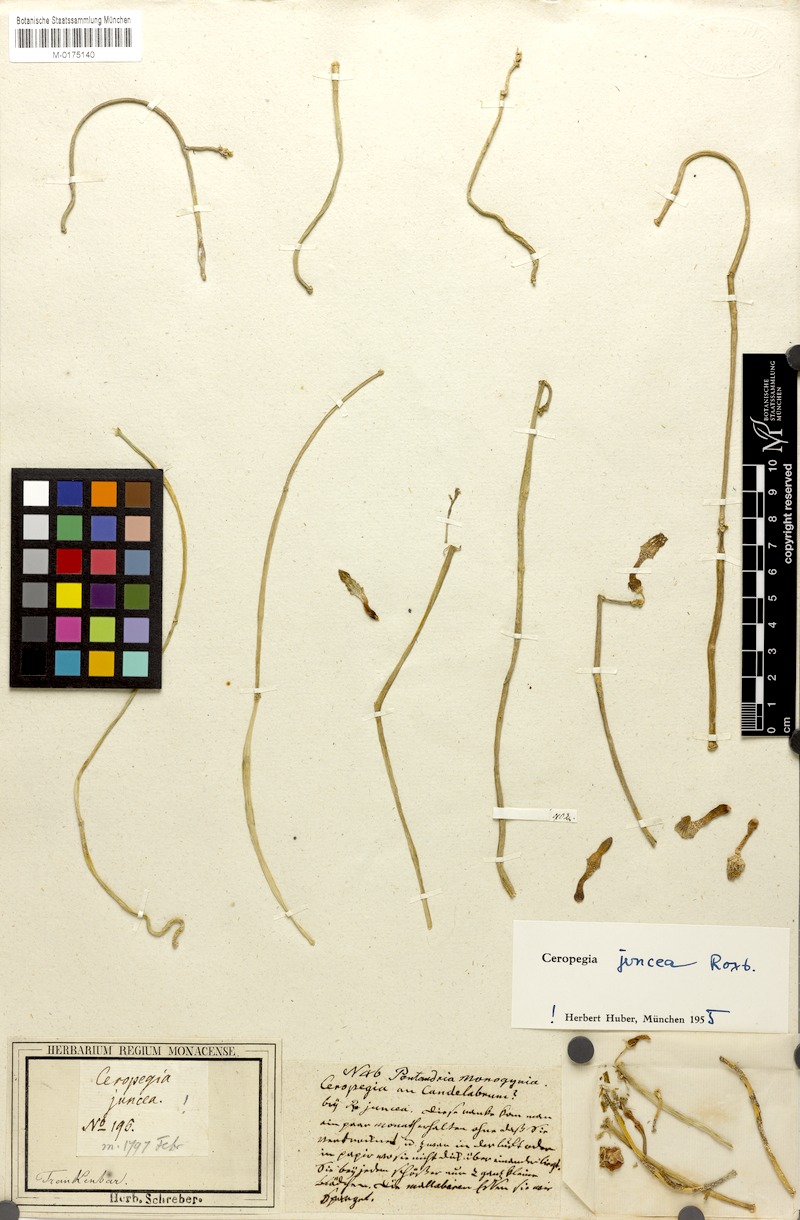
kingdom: Plantae
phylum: Tracheophyta
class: Magnoliopsida
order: Gentianales
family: Apocynaceae
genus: Ceropegia
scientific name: Ceropegia juncea
